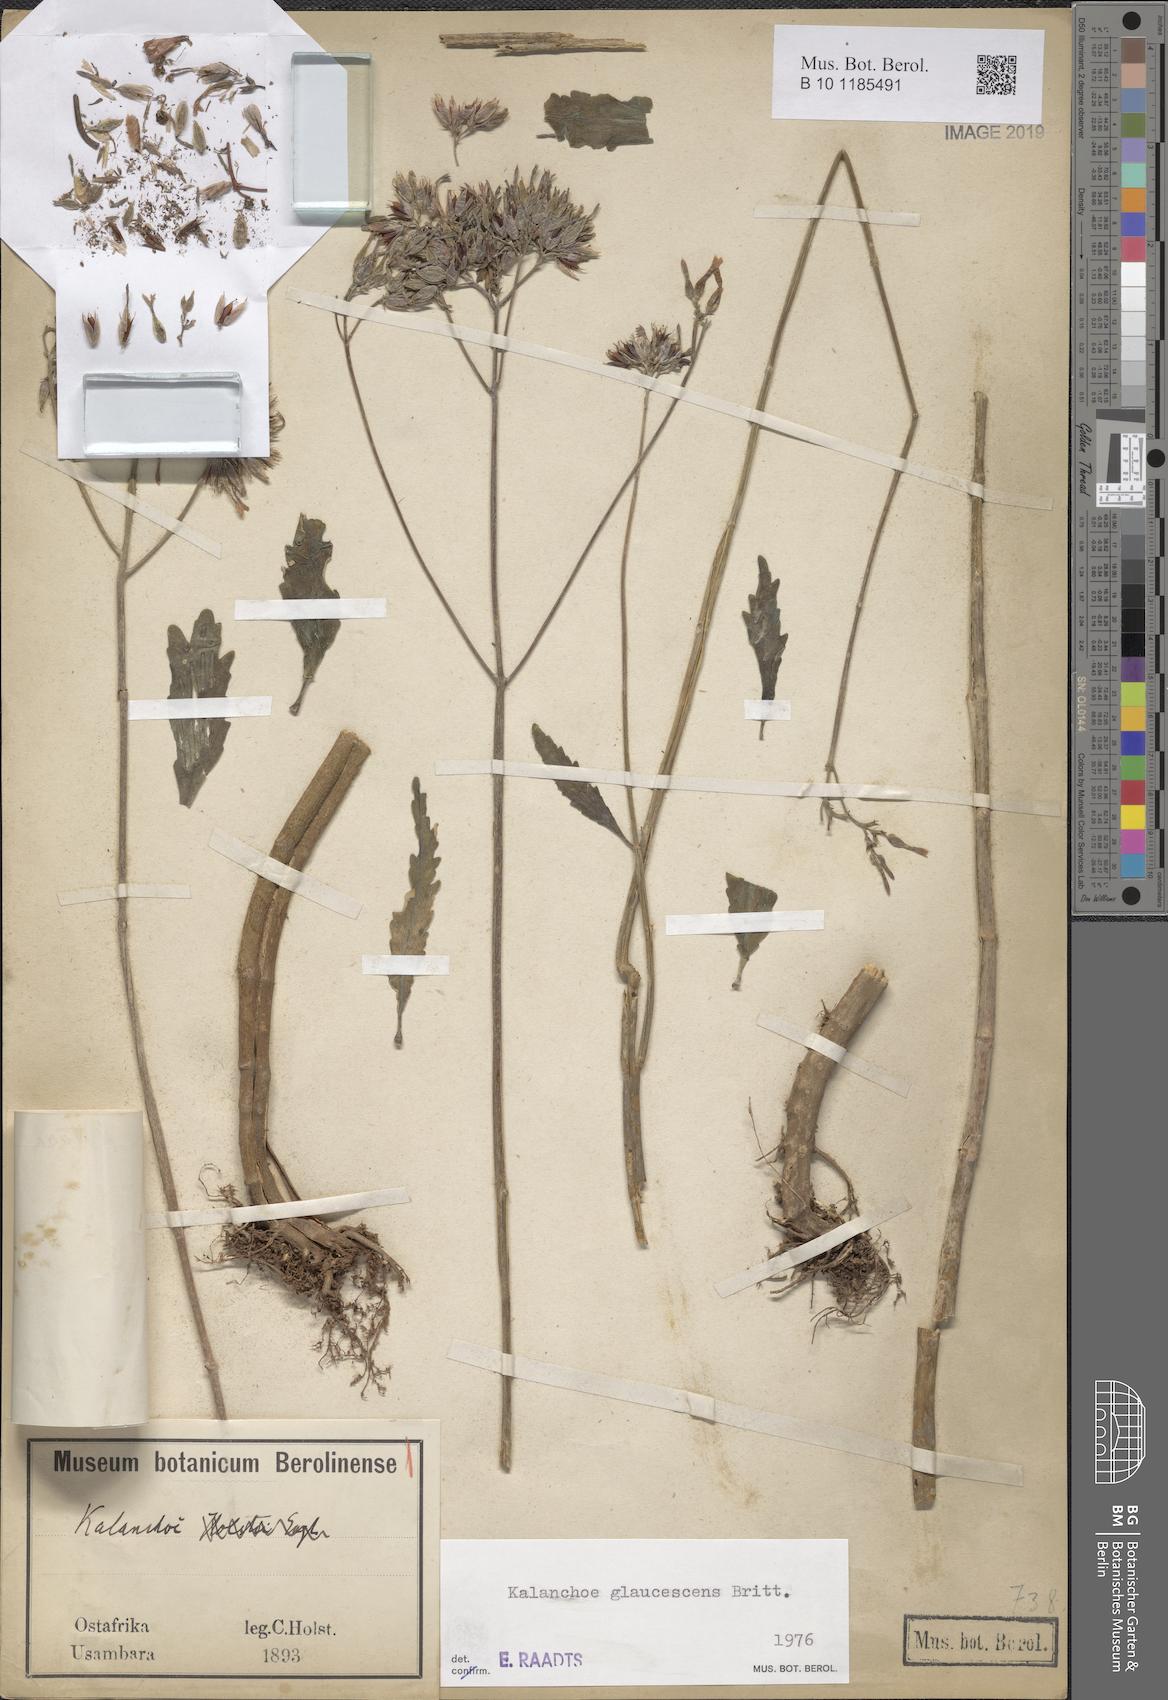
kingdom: Plantae
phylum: Tracheophyta
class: Magnoliopsida
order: Saxifragales
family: Crassulaceae
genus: Kalanchoe
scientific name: Kalanchoe glaucescens
